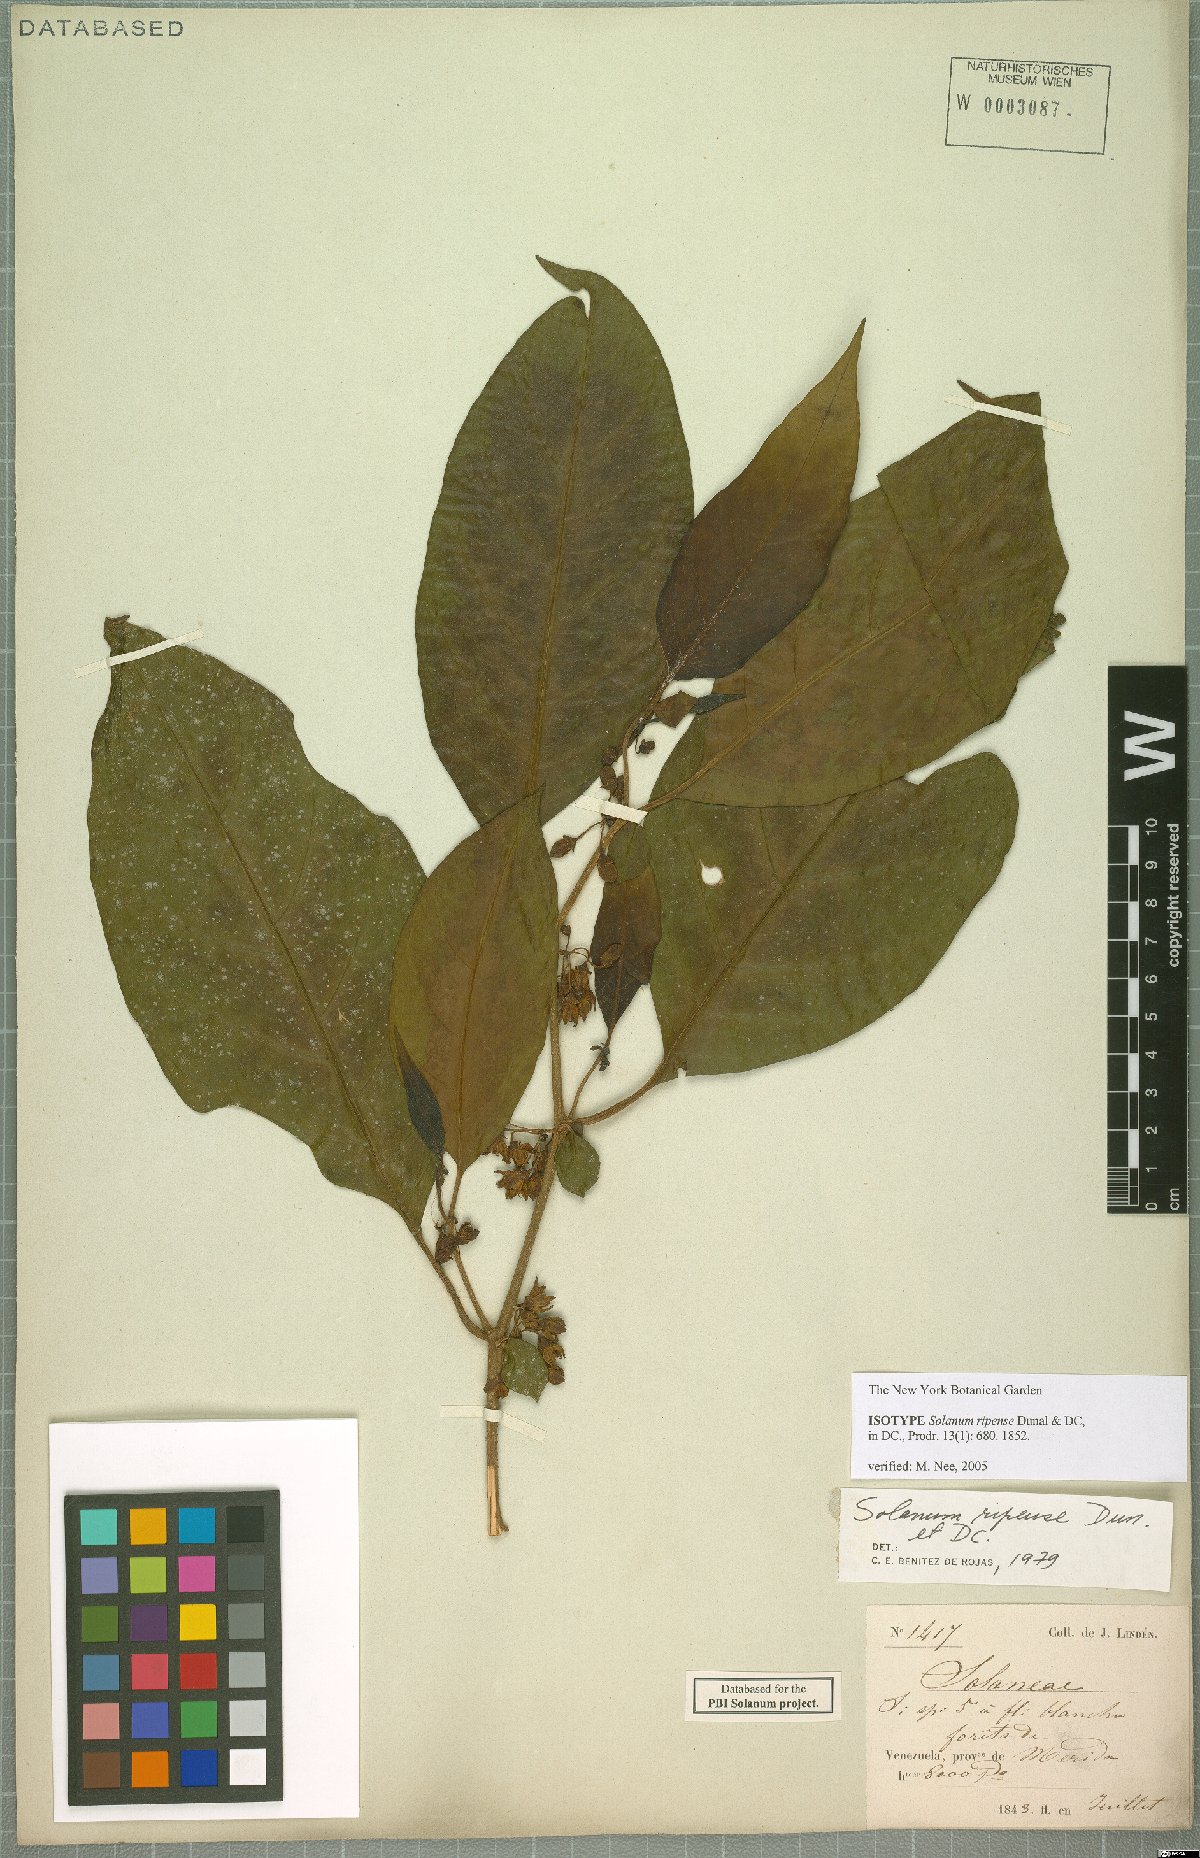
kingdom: Plantae
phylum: Tracheophyta
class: Magnoliopsida
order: Solanales
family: Solanaceae
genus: Solanum
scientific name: Solanum ripense
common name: Mérida nightshade
